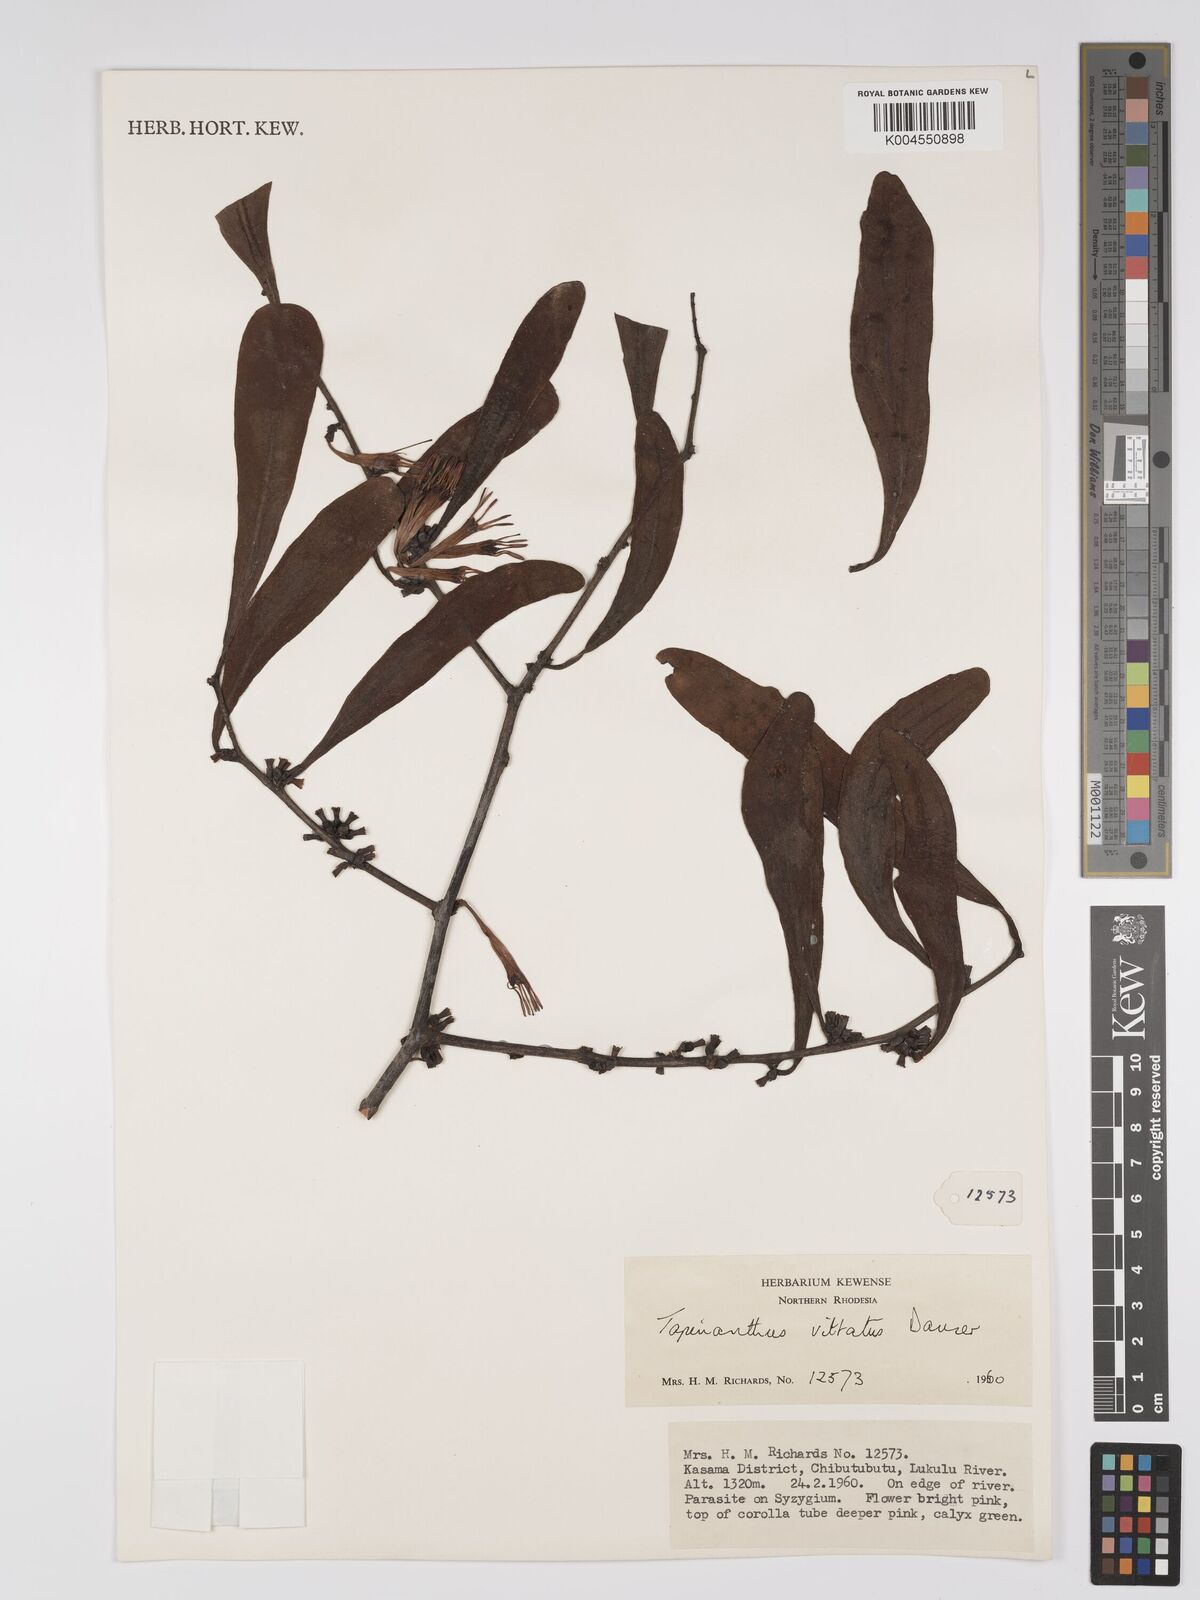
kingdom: Plantae
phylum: Tracheophyta
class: Magnoliopsida
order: Santalales
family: Loranthaceae
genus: Agelanthus
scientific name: Agelanthus zizyphifolius
